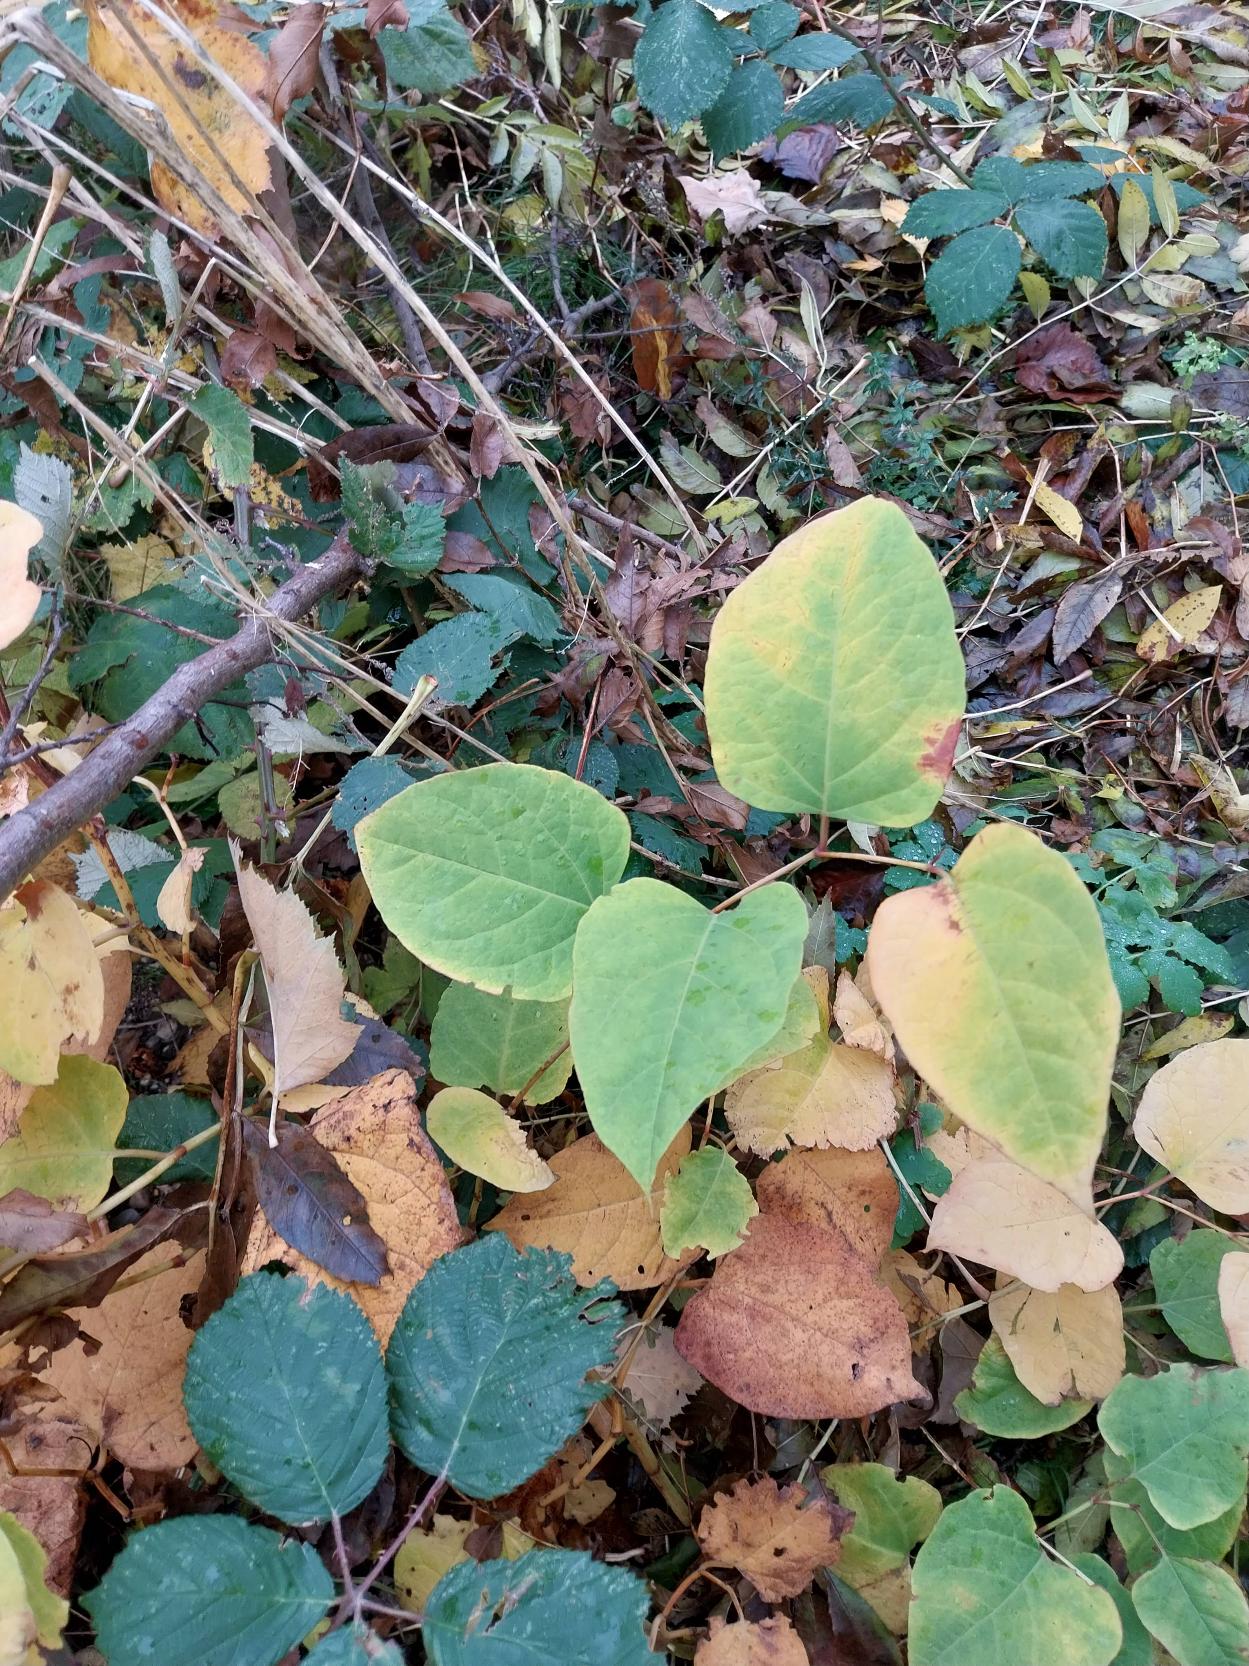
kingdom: Plantae
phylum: Tracheophyta
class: Magnoliopsida
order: Caryophyllales
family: Polygonaceae
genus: Reynoutria
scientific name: Reynoutria japonica
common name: Japan-pileurt
